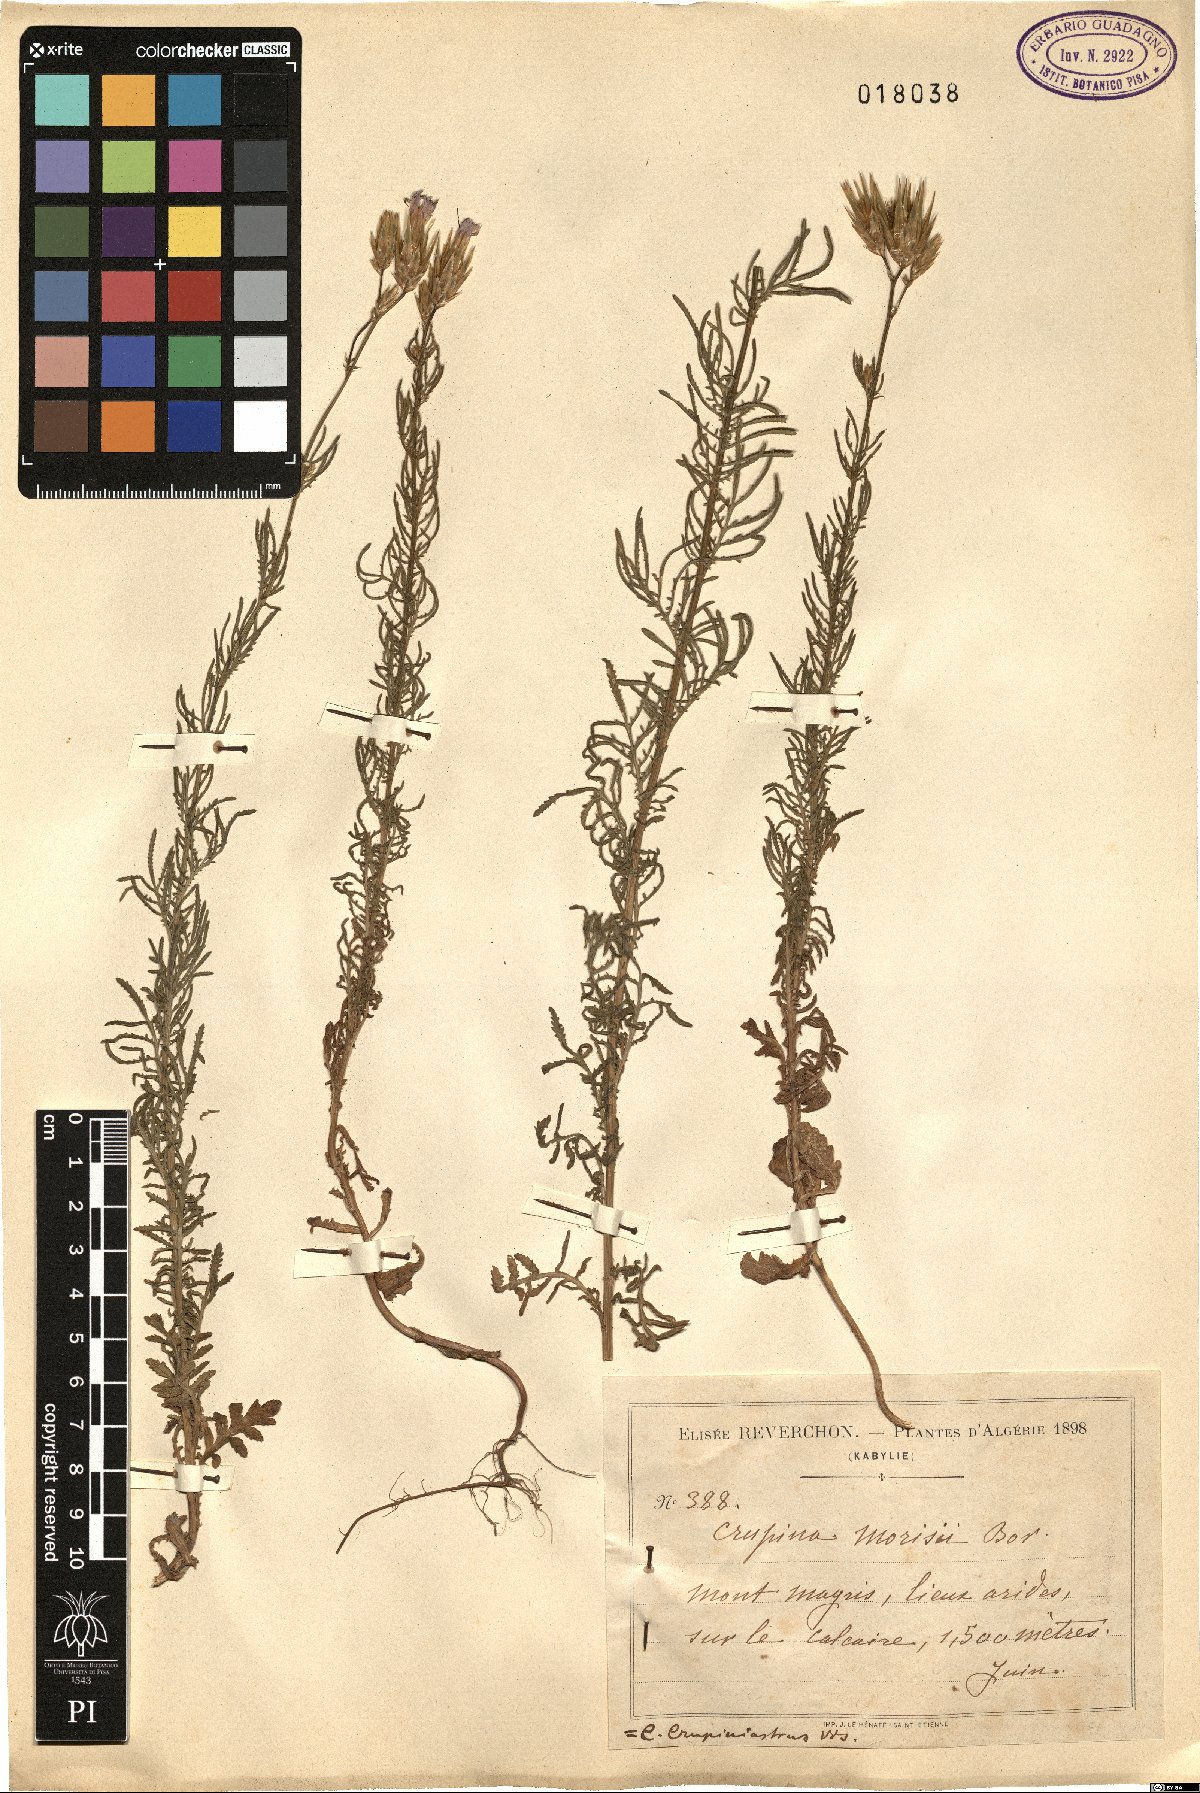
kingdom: Plantae
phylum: Tracheophyta
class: Magnoliopsida
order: Asterales
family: Asteraceae
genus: Crupina
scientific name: Crupina crupinastrum
